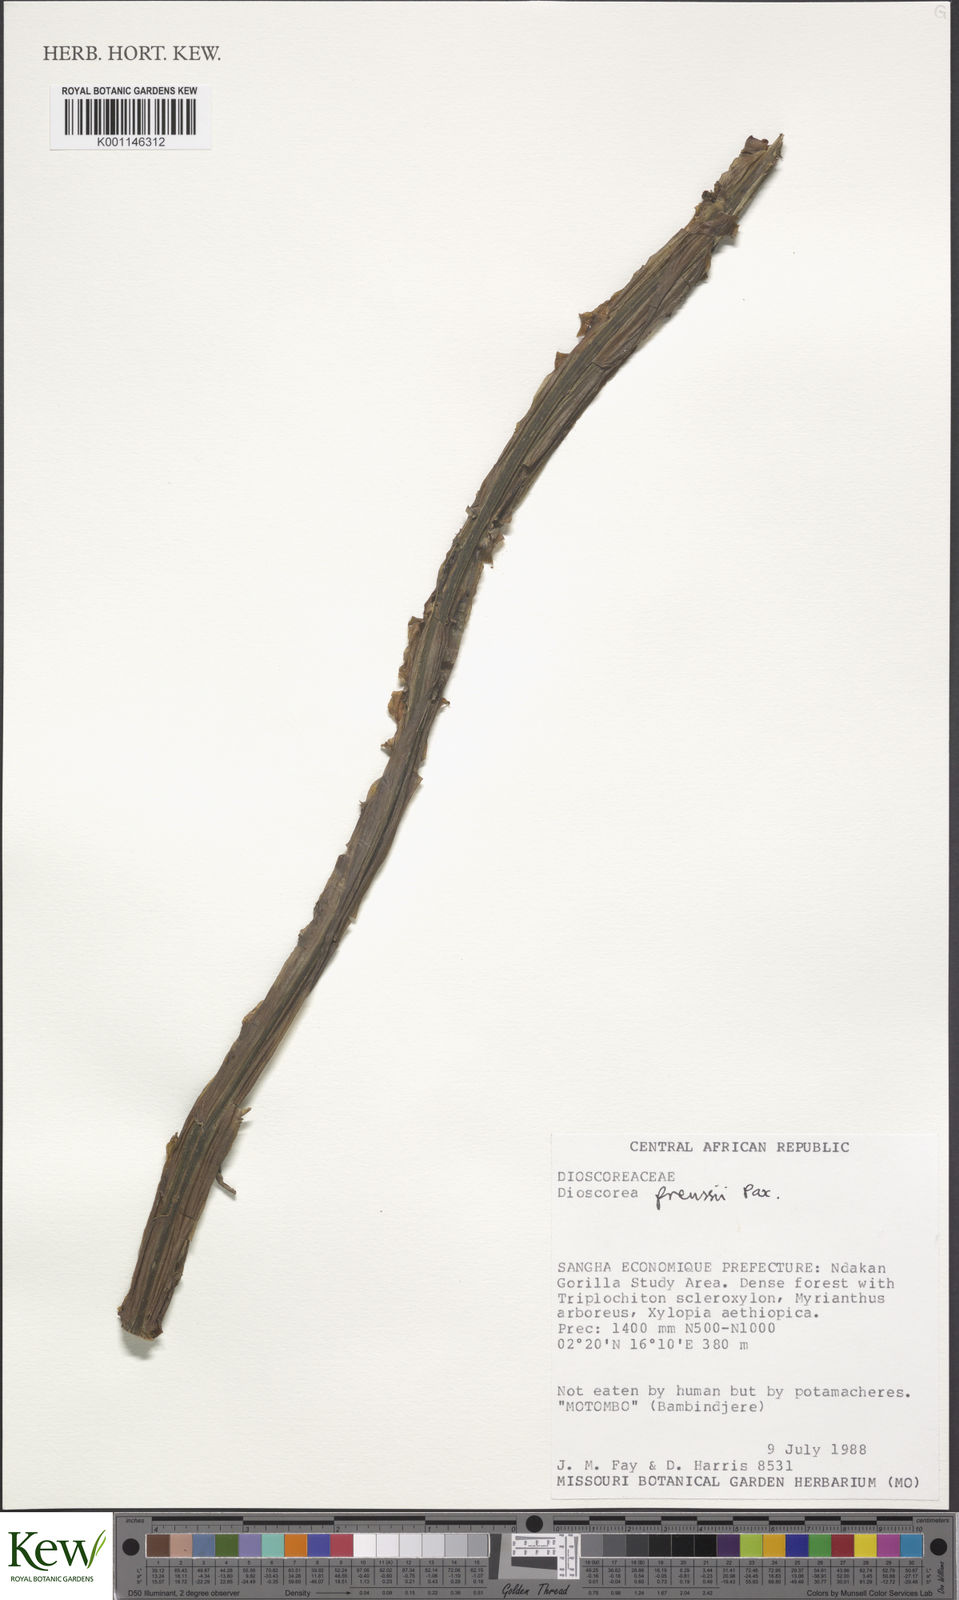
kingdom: Plantae
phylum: Tracheophyta
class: Liliopsida
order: Dioscoreales
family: Dioscoreaceae
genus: Dioscorea
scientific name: Dioscorea preussii
